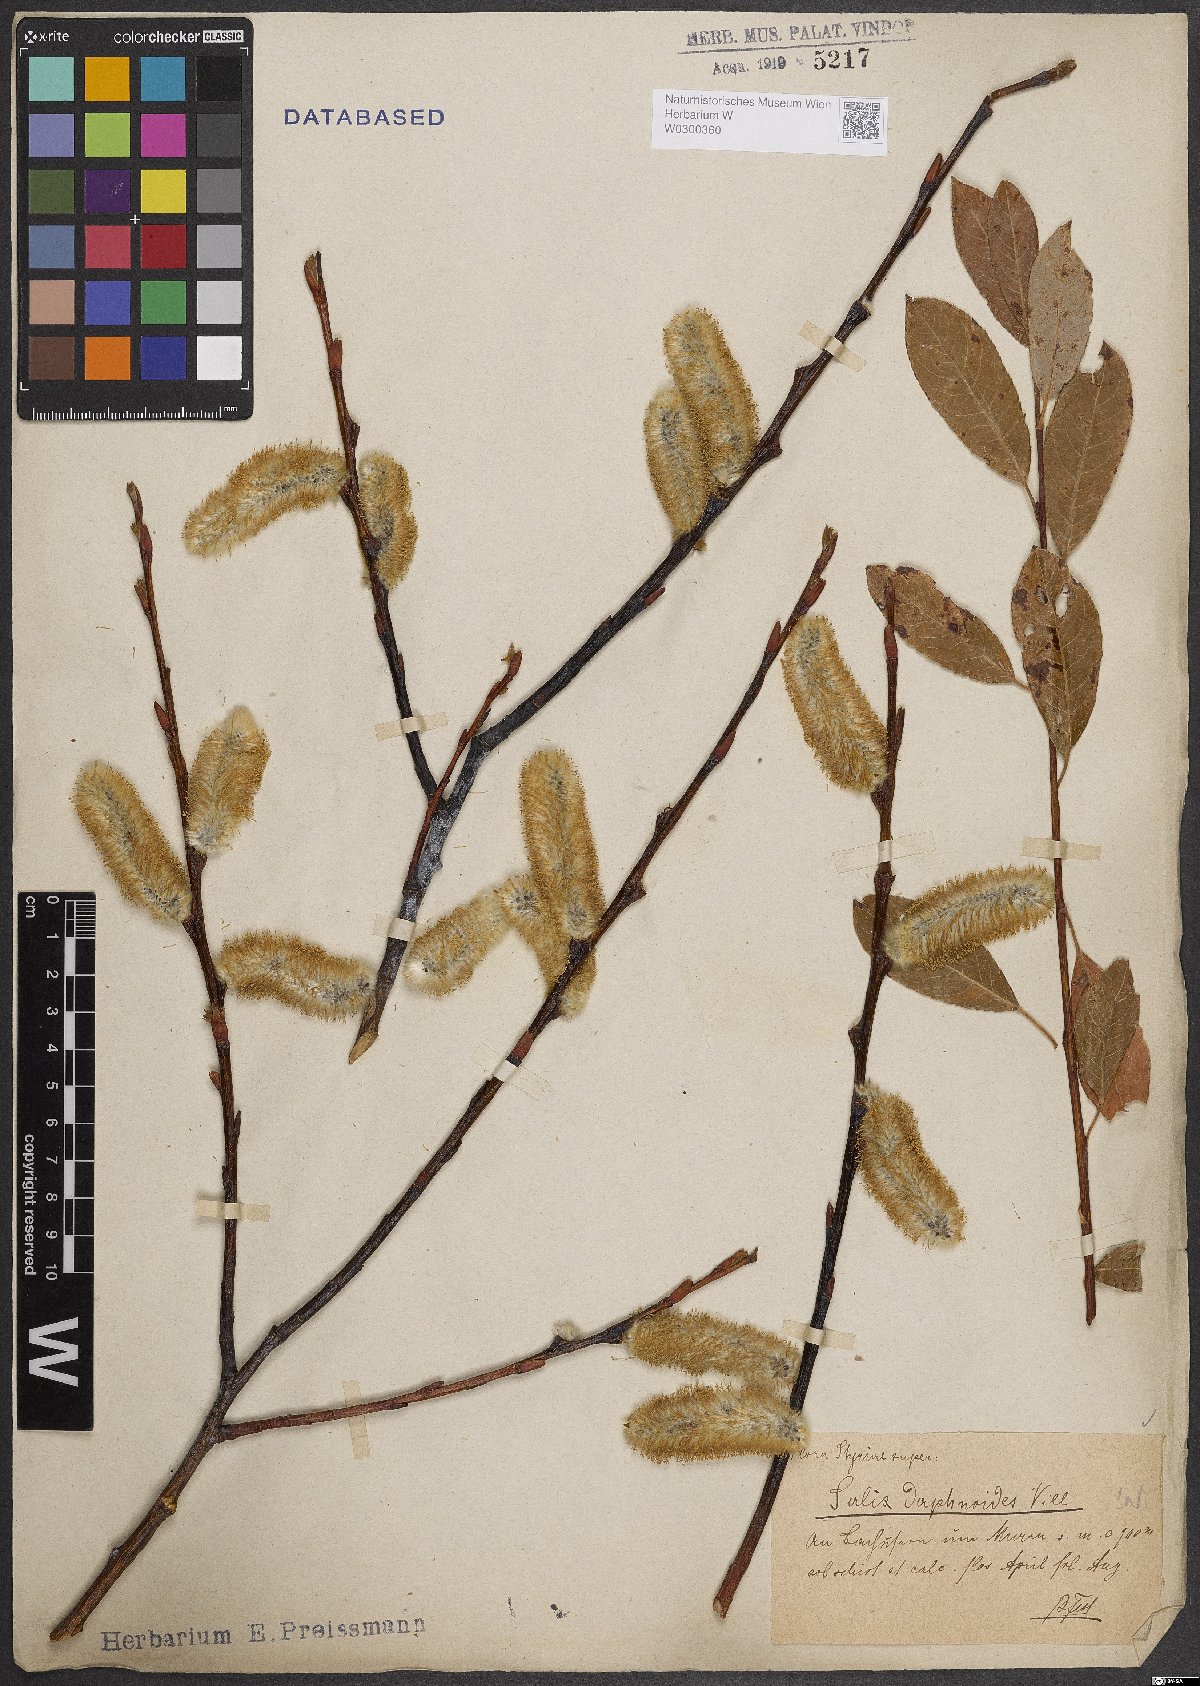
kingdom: Plantae
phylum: Tracheophyta
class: Magnoliopsida
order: Malpighiales
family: Salicaceae
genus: Salix
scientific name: Salix daphnoides
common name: European violet-willow
